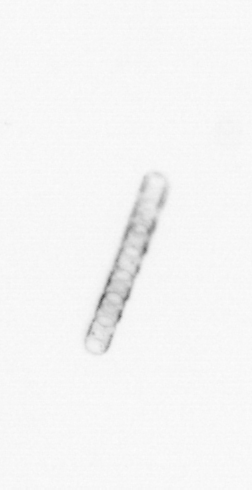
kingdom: Chromista
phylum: Ochrophyta
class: Bacillariophyceae
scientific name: Bacillariophyceae
